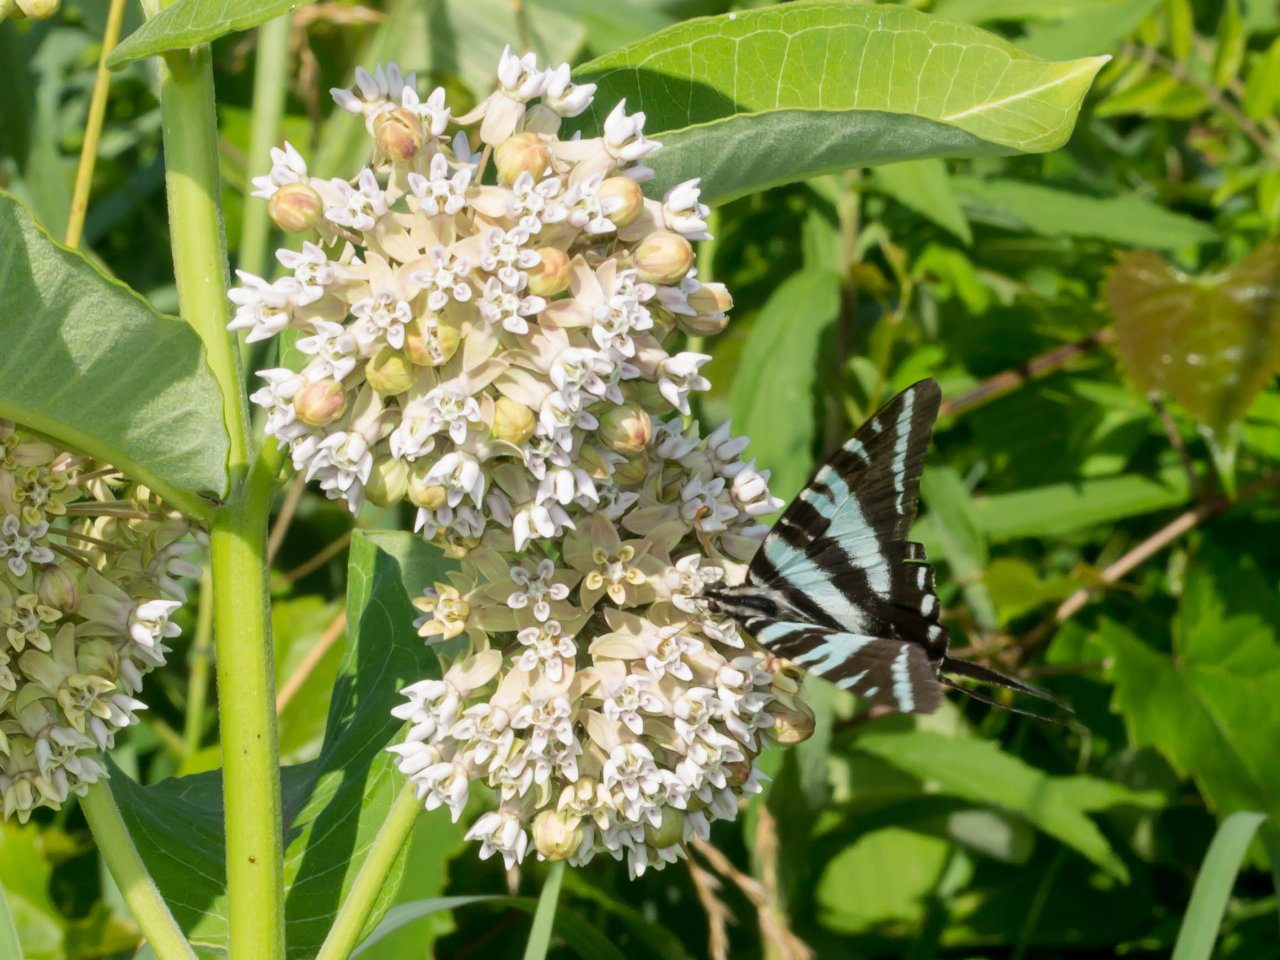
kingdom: Animalia
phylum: Arthropoda
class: Insecta
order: Lepidoptera
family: Papilionidae
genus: Protographium
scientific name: Protographium marcellus
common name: Zebra Swallowtail
